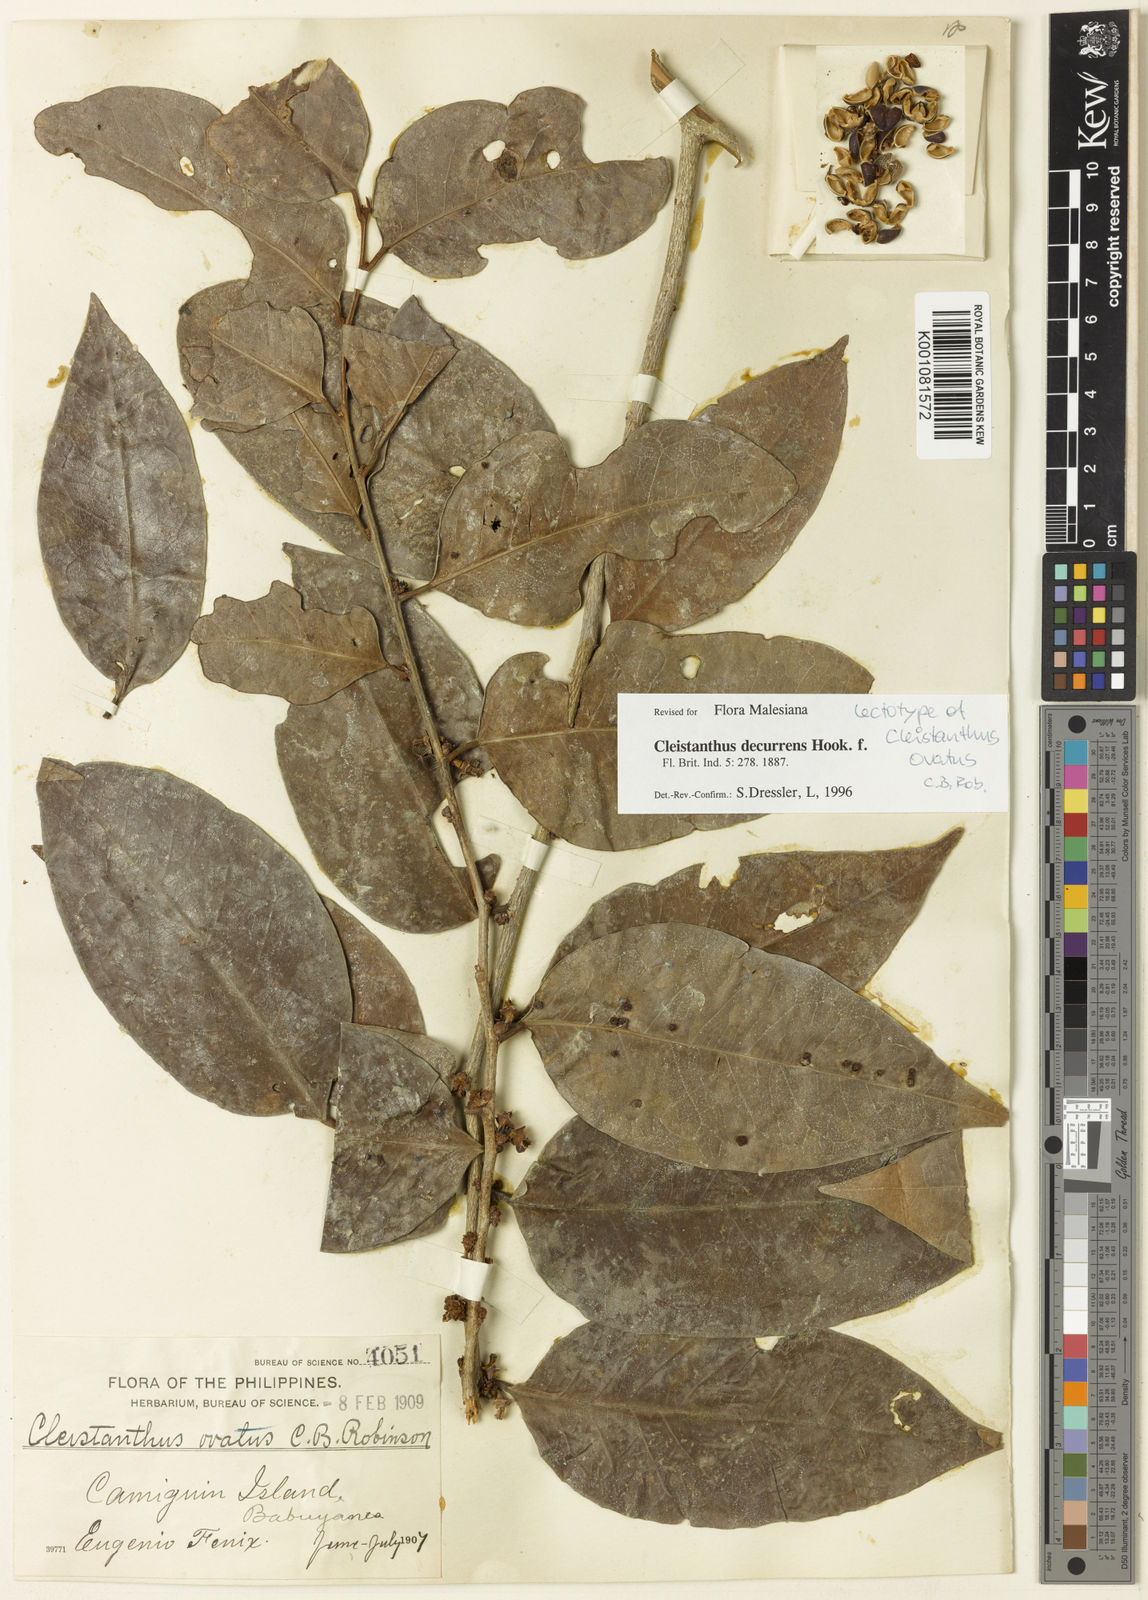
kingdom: Plantae
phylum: Tracheophyta
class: Magnoliopsida
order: Malpighiales
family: Phyllanthaceae
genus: Cleistanthus
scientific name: Cleistanthus decurrens
